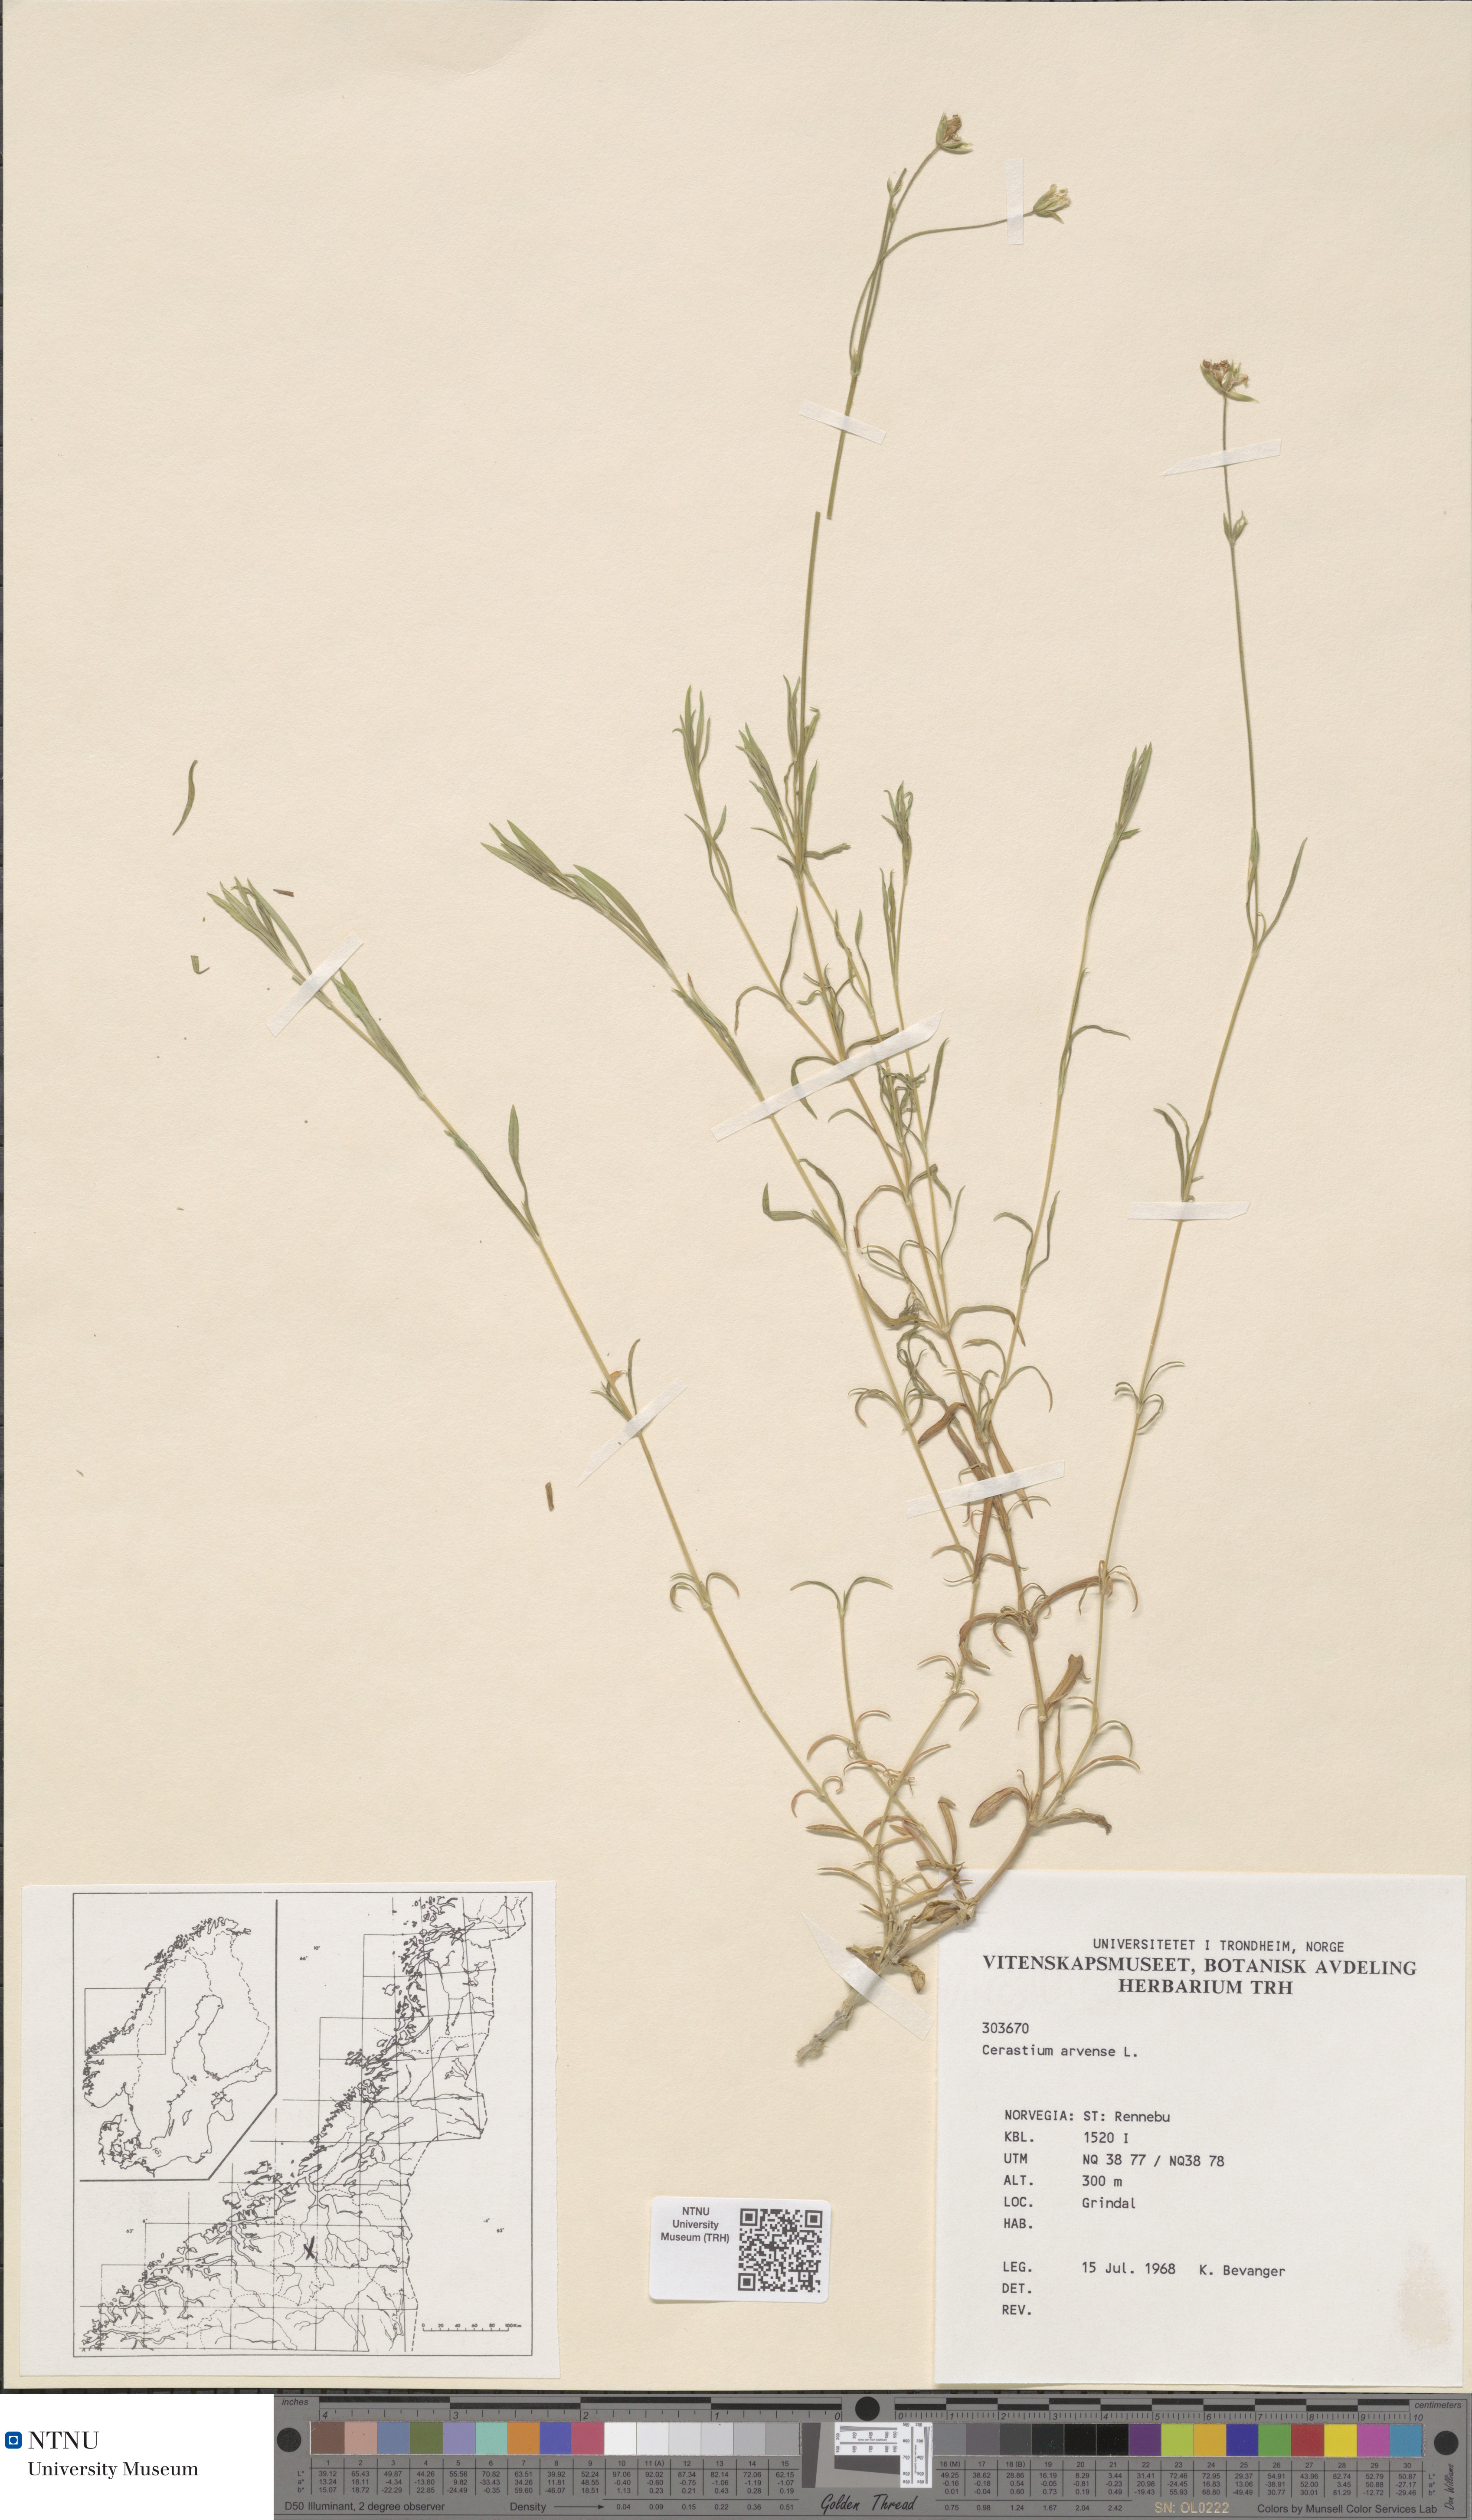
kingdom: Plantae
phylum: Tracheophyta
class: Magnoliopsida
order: Caryophyllales
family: Caryophyllaceae
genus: Cerastium
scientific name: Cerastium arvense
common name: Field mouse-ear
